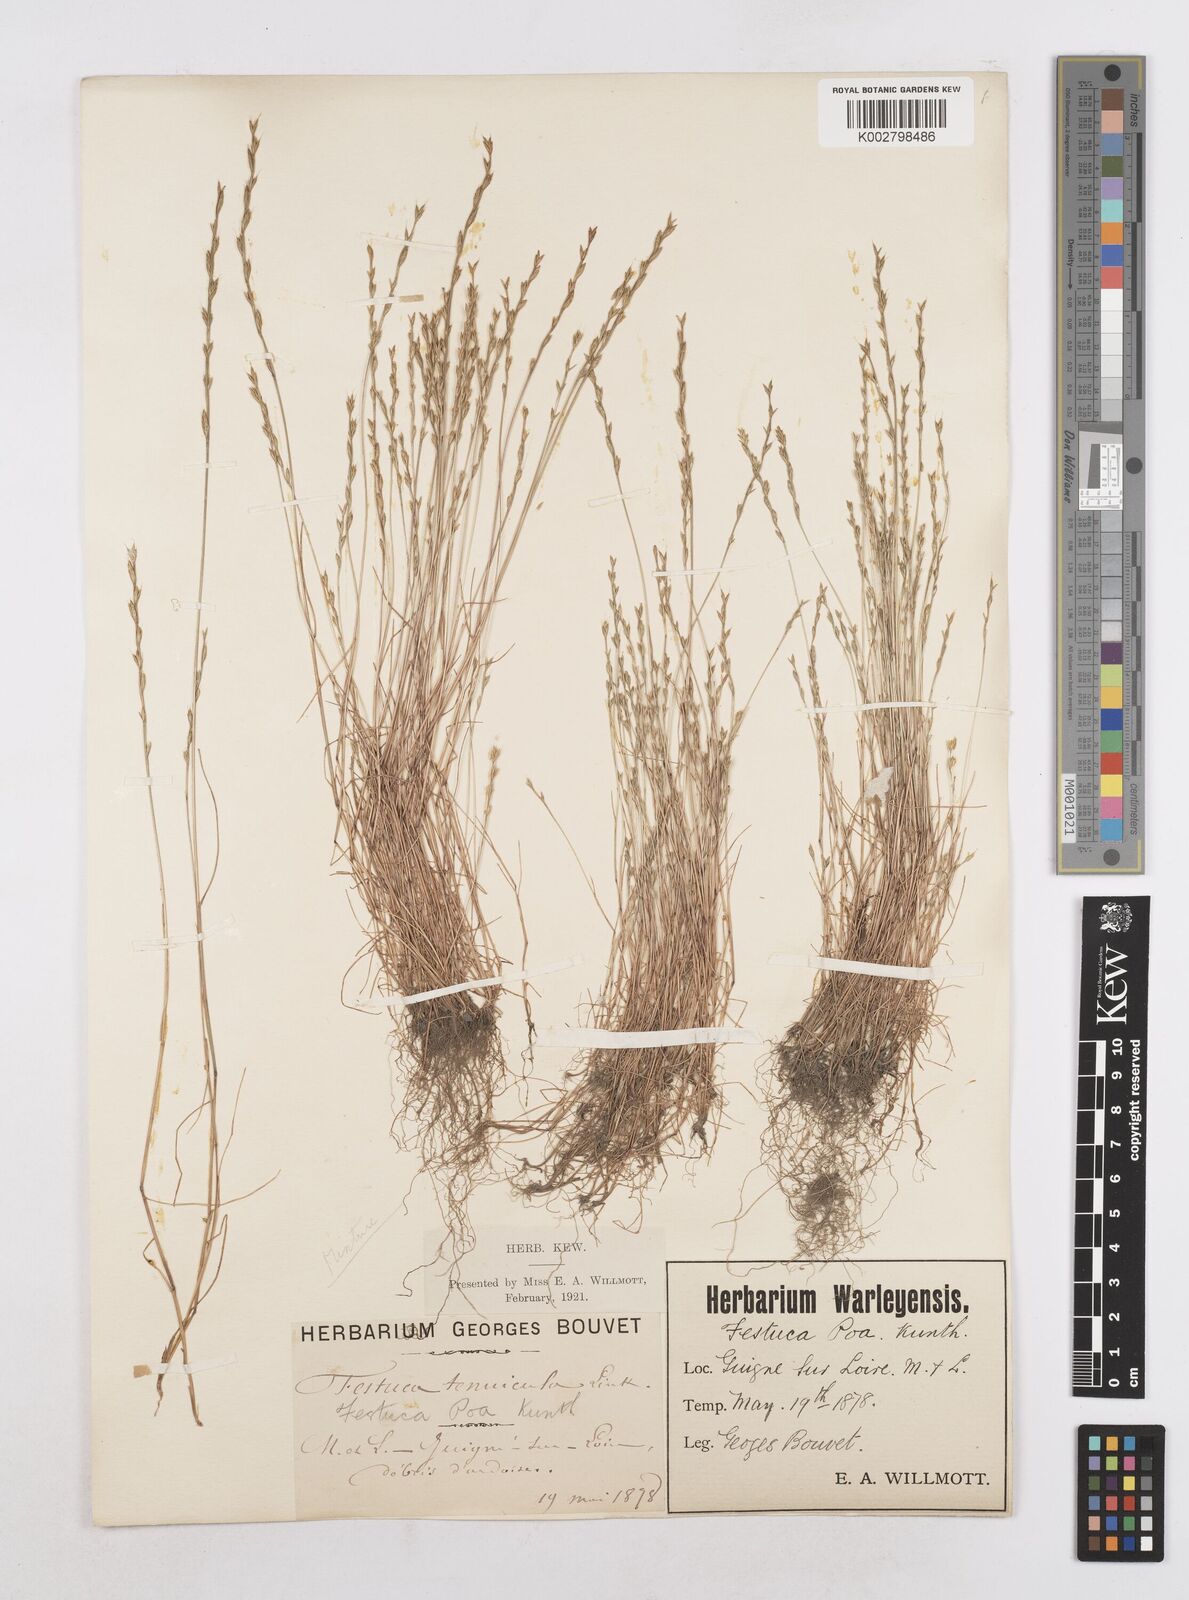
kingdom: Plantae
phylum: Tracheophyta
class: Liliopsida
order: Poales
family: Poaceae
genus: Festuca
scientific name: Festuca lachenalii
